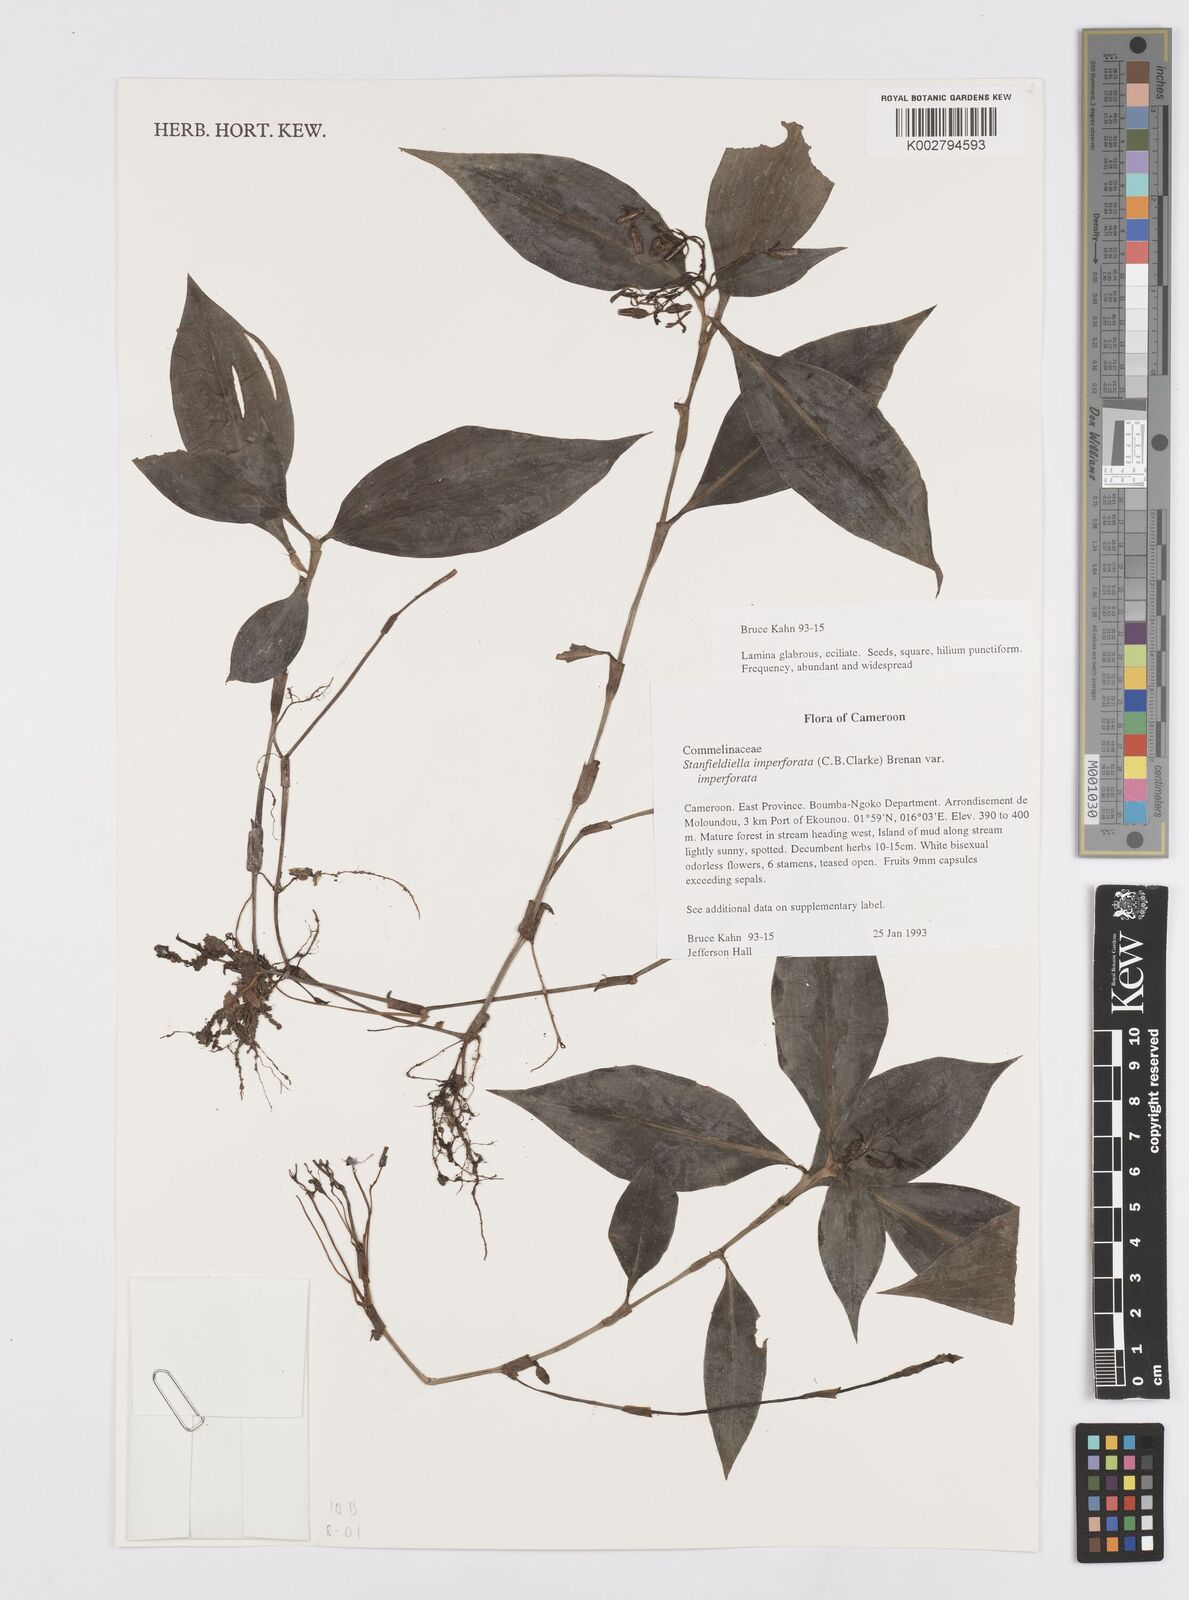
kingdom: Plantae
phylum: Tracheophyta
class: Liliopsida
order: Commelinales
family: Commelinaceae
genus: Stanfieldiella
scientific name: Stanfieldiella imperforata
